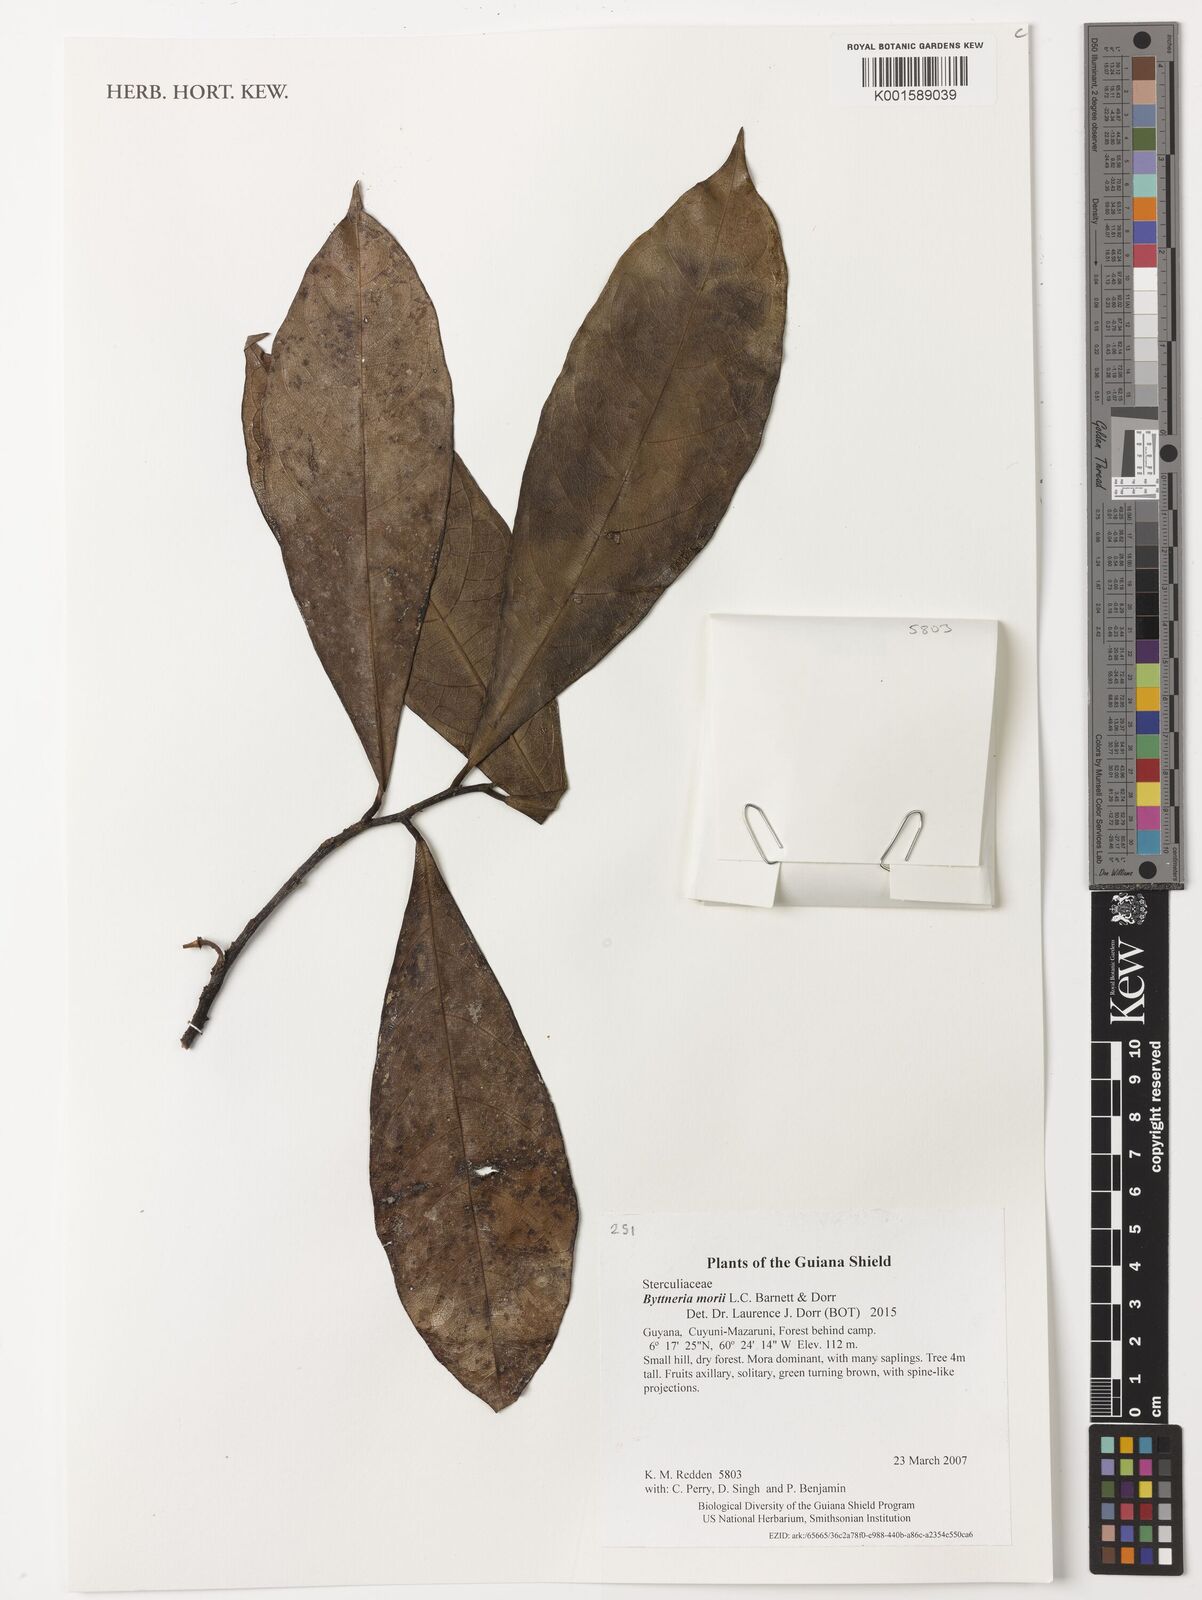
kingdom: Plantae
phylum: Tracheophyta
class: Magnoliopsida
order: Malvales
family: Malvaceae
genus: Byttneria
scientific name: Byttneria morii
